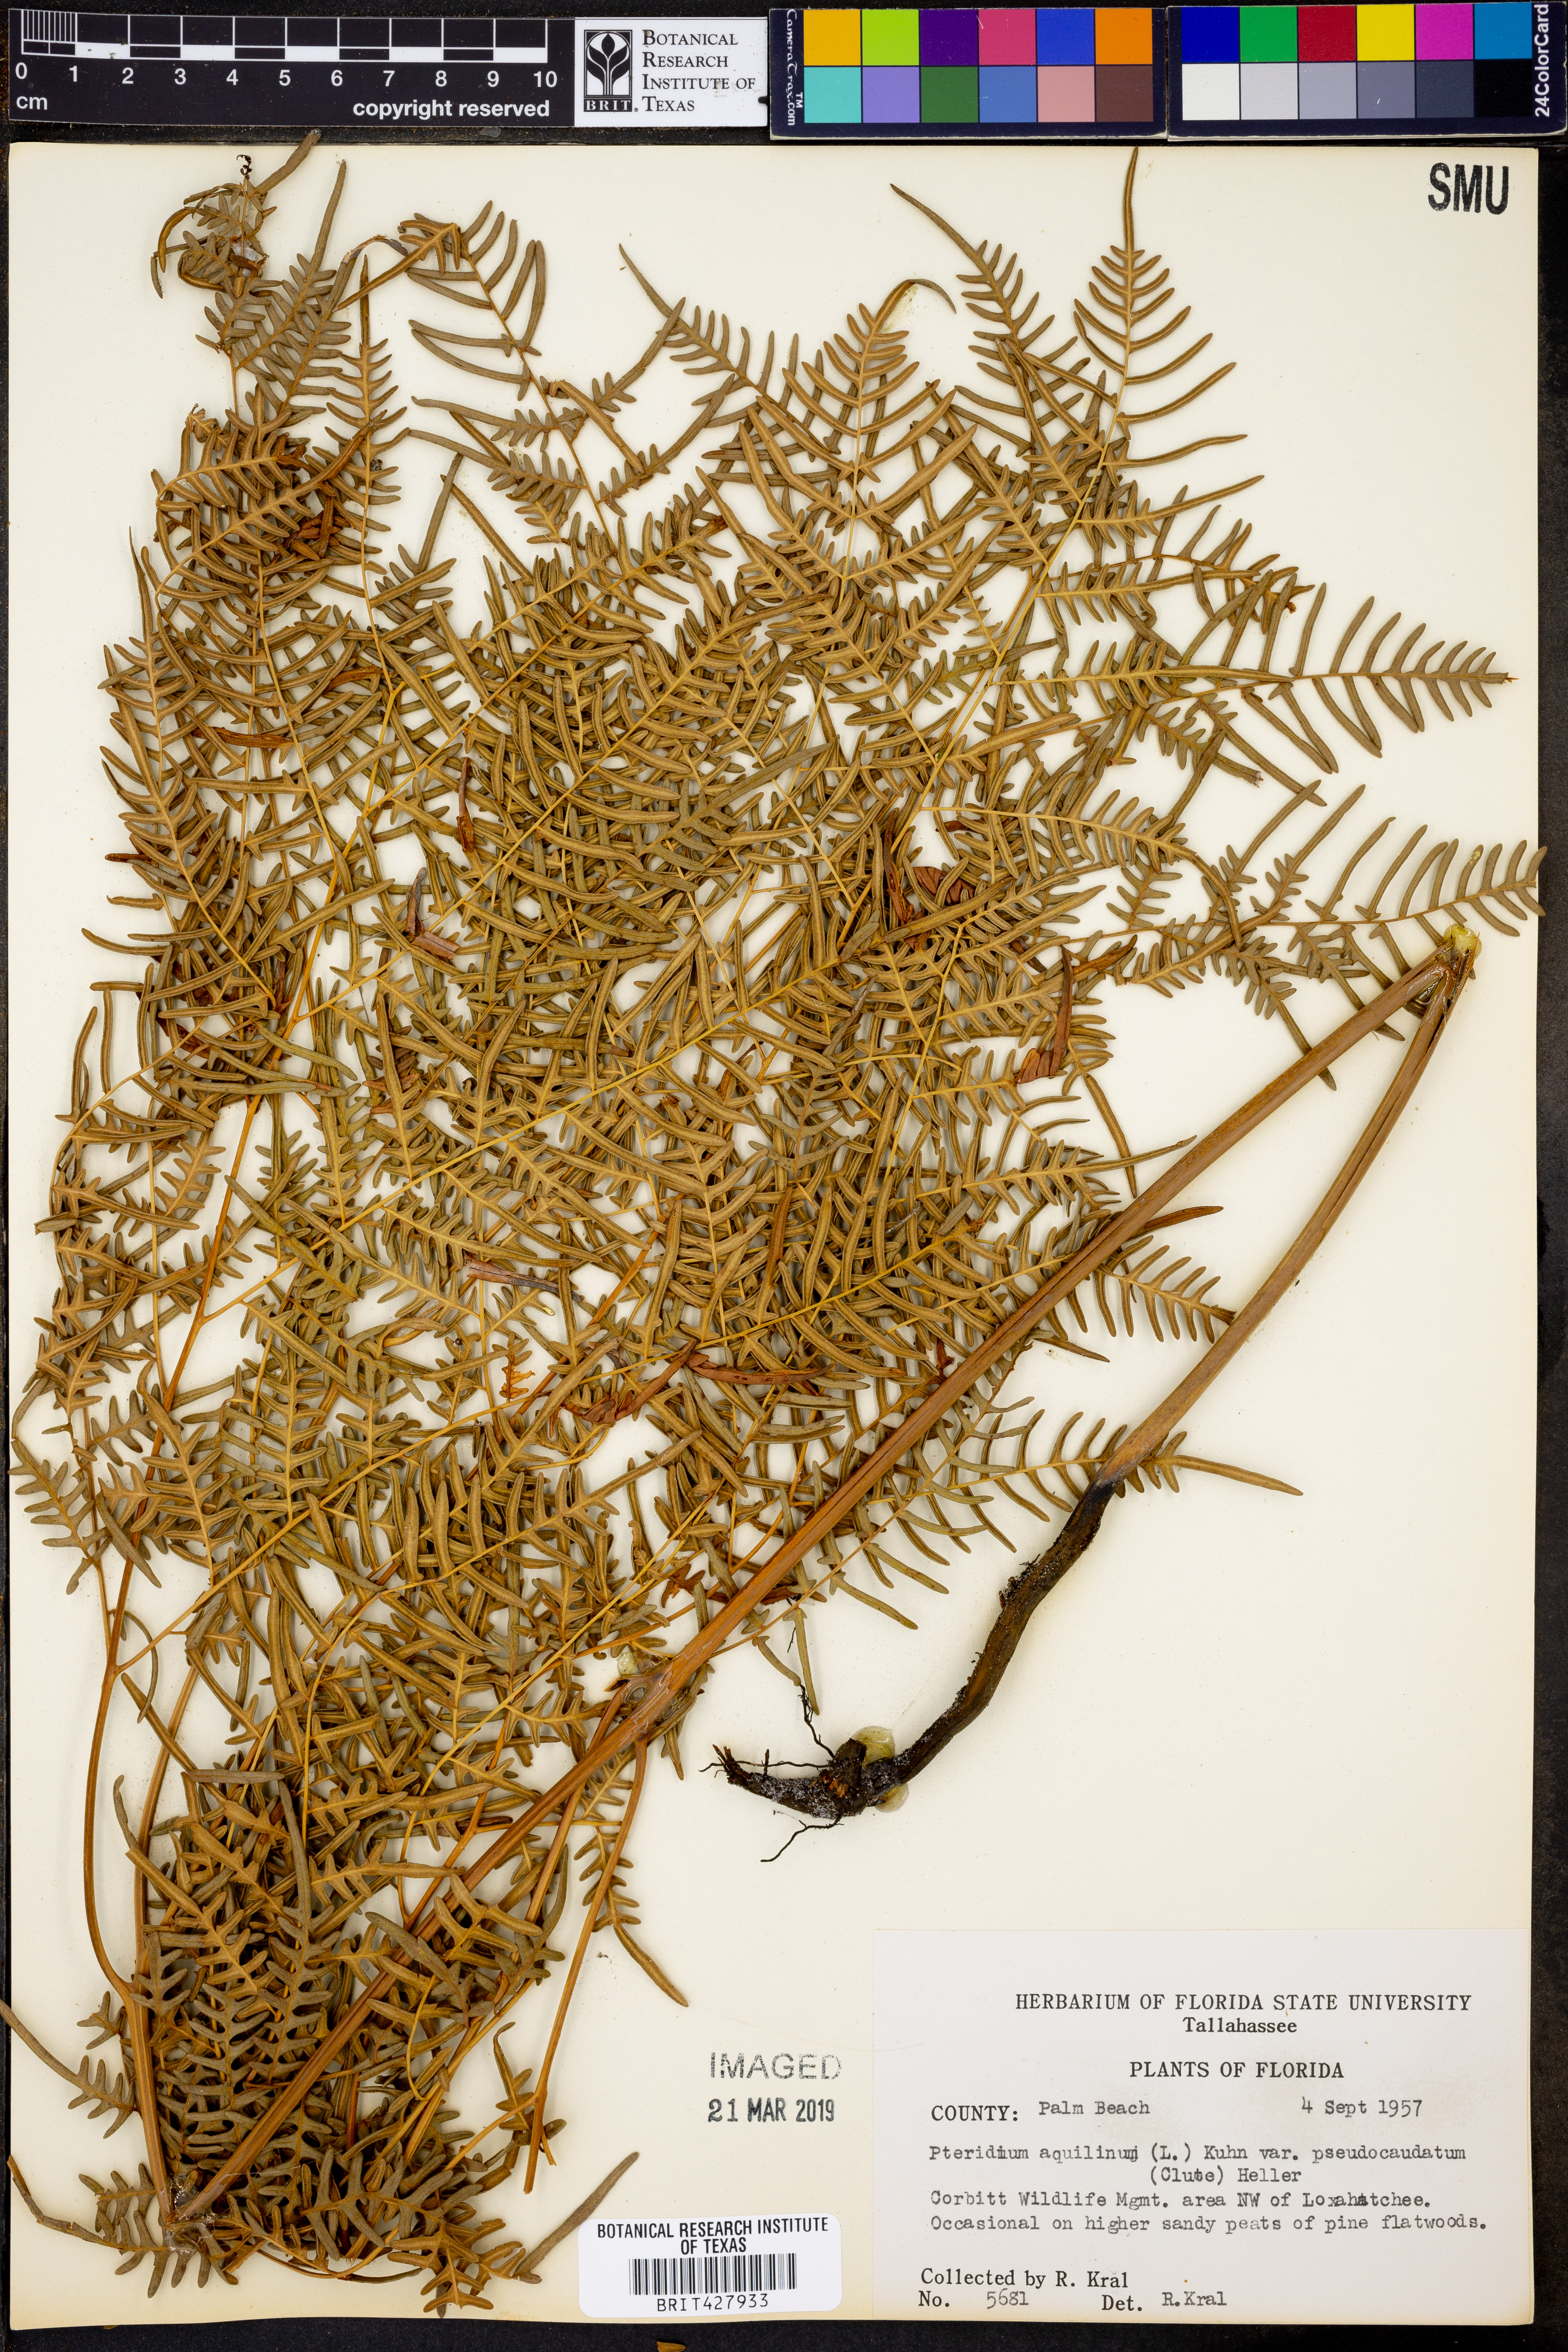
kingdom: Plantae
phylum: Tracheophyta
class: Polypodiopsida
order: Polypodiales
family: Dennstaedtiaceae
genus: Pteridium
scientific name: Pteridium aquilinum
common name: Bracken
